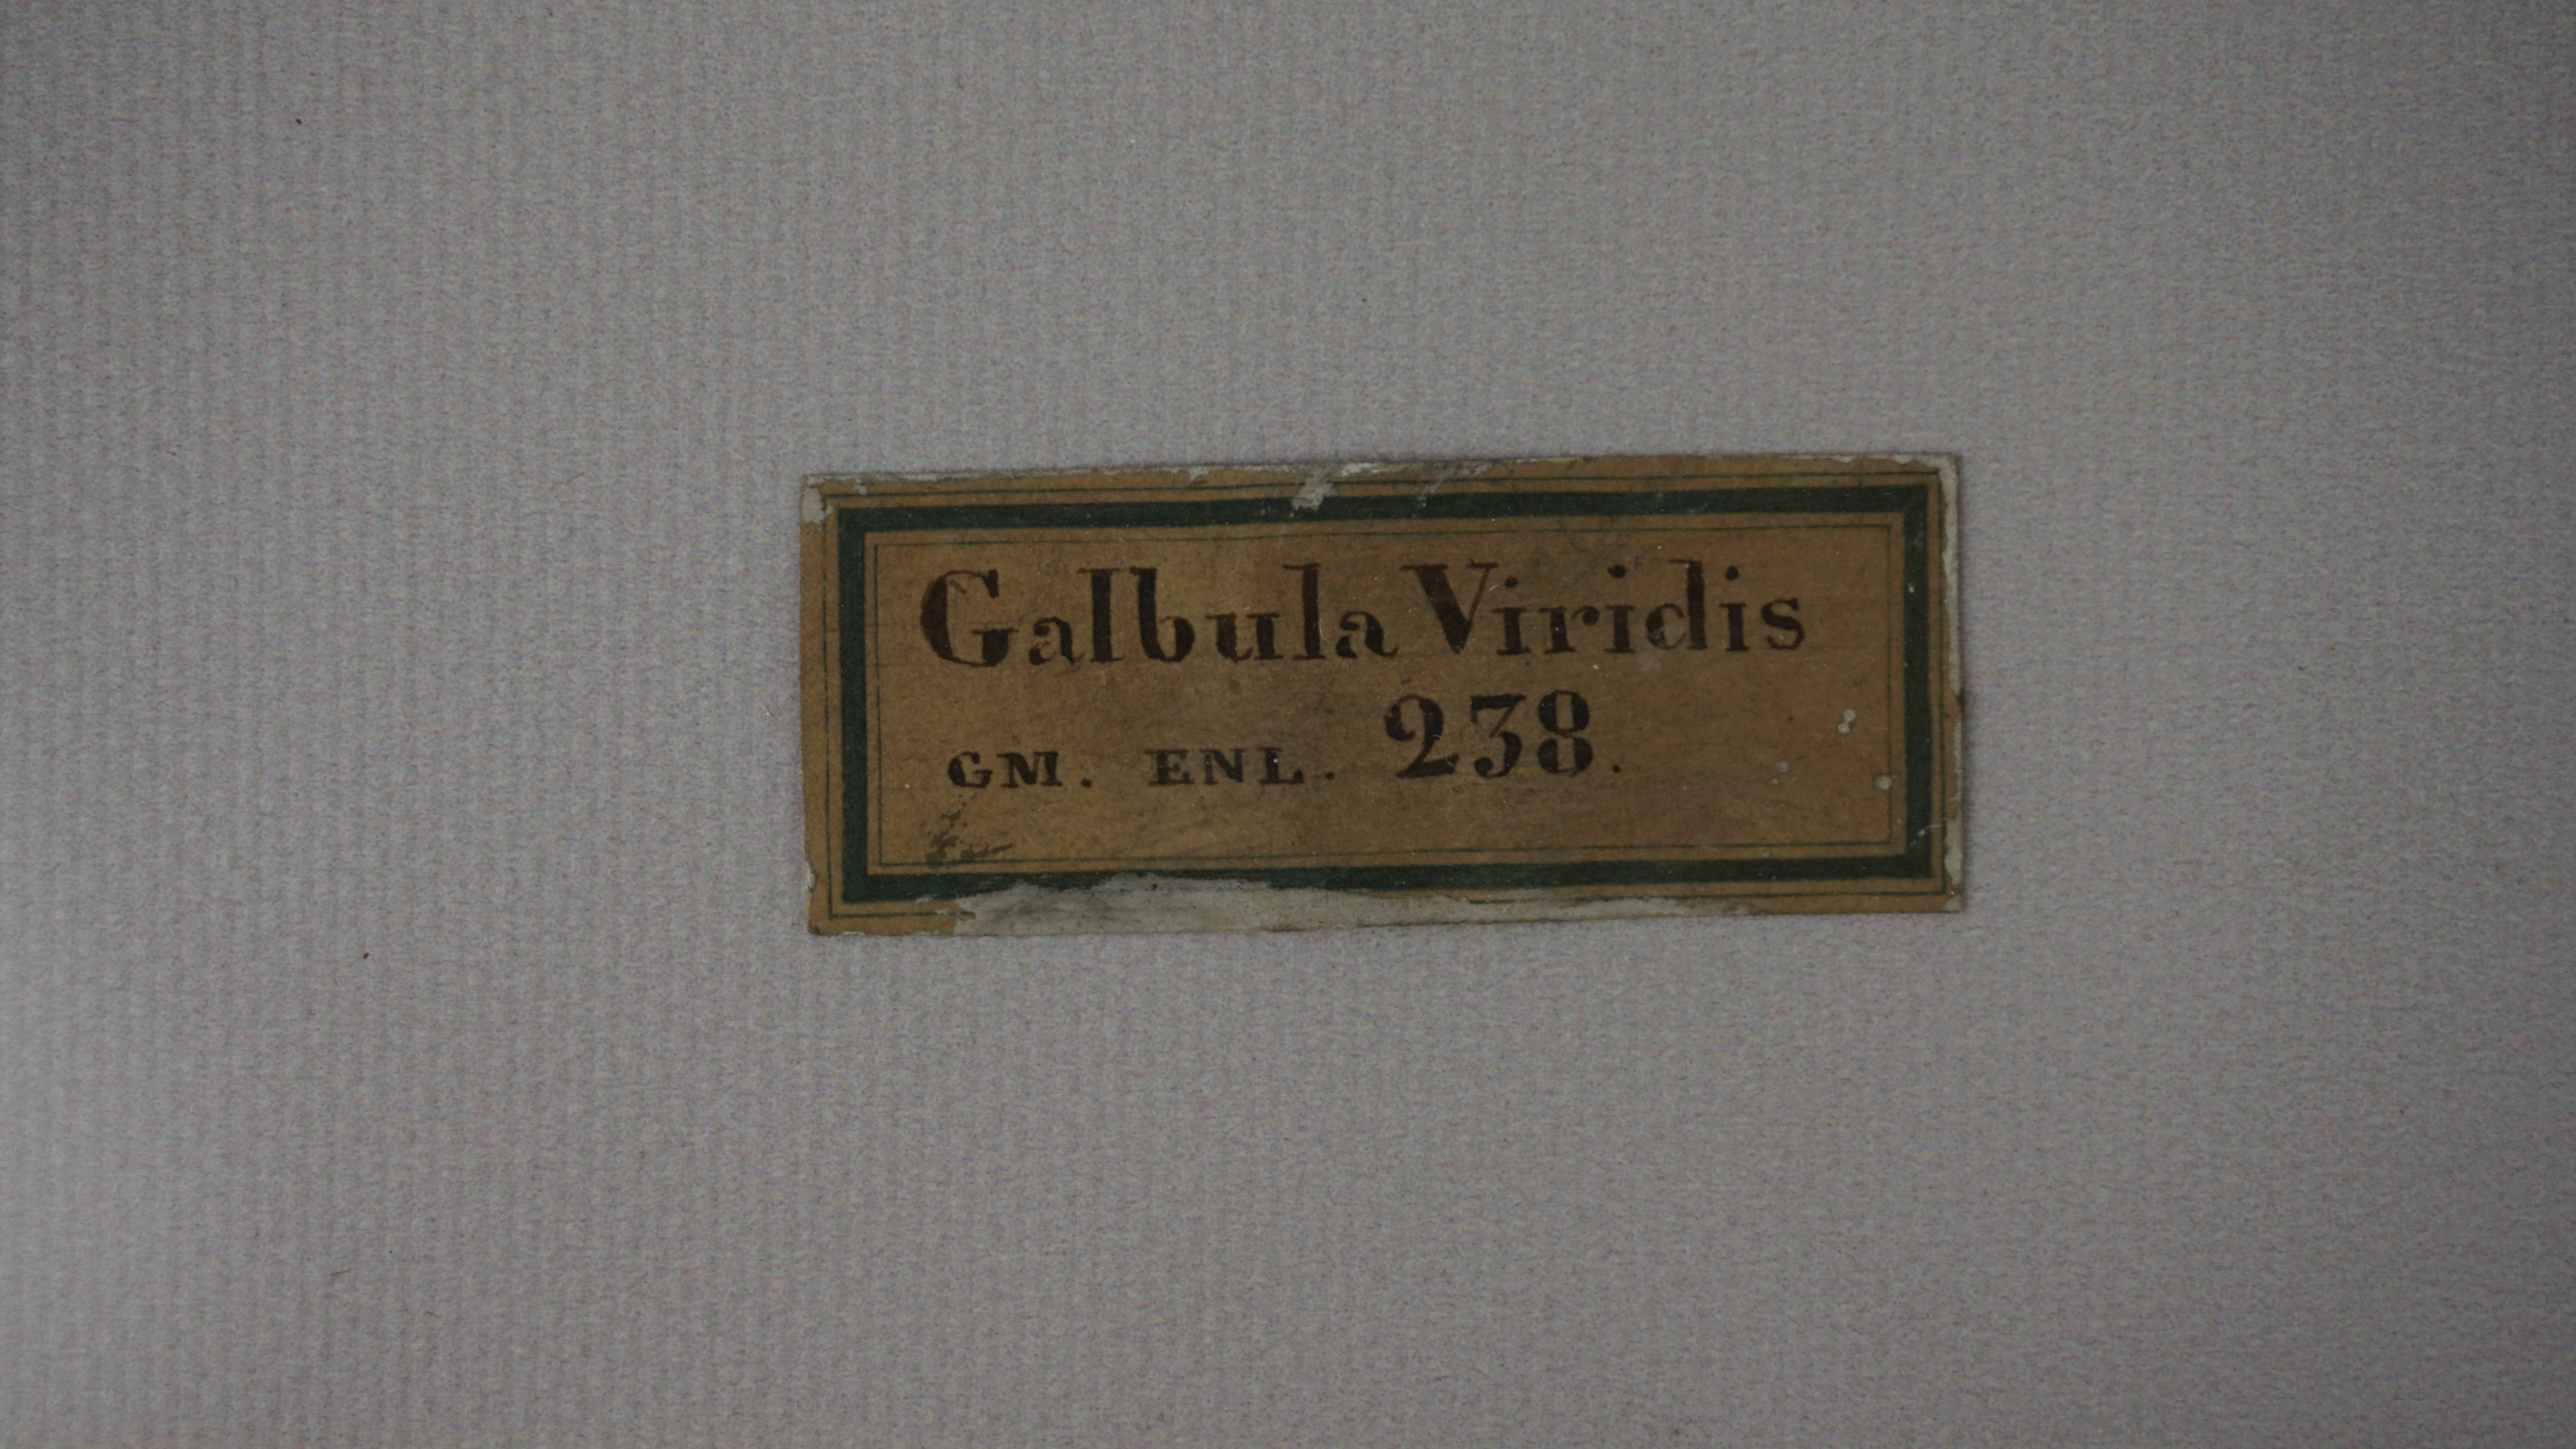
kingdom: Animalia
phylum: Chordata
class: Aves
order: Piciformes
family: Galbulidae
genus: Galbula
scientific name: Galbula galbula
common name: Green-tailed jacamar
